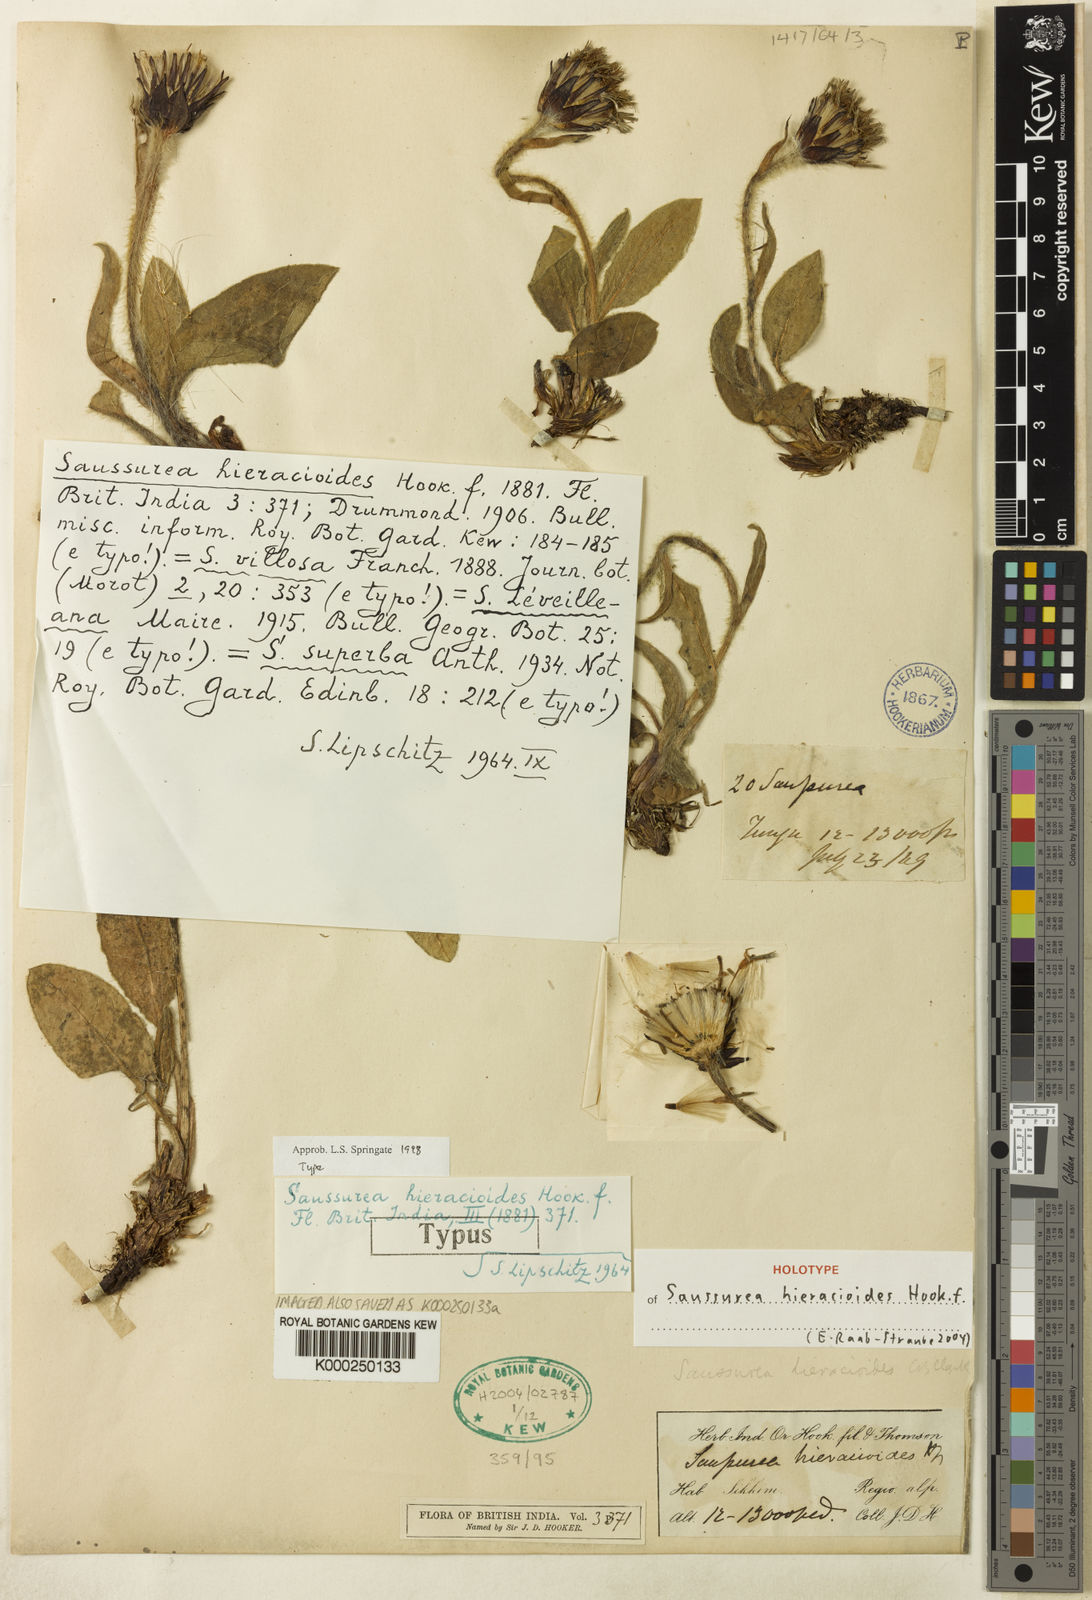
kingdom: Plantae
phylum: Tracheophyta
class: Magnoliopsida
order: Asterales
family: Asteraceae
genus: Saussurea
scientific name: Saussurea hieracioides
